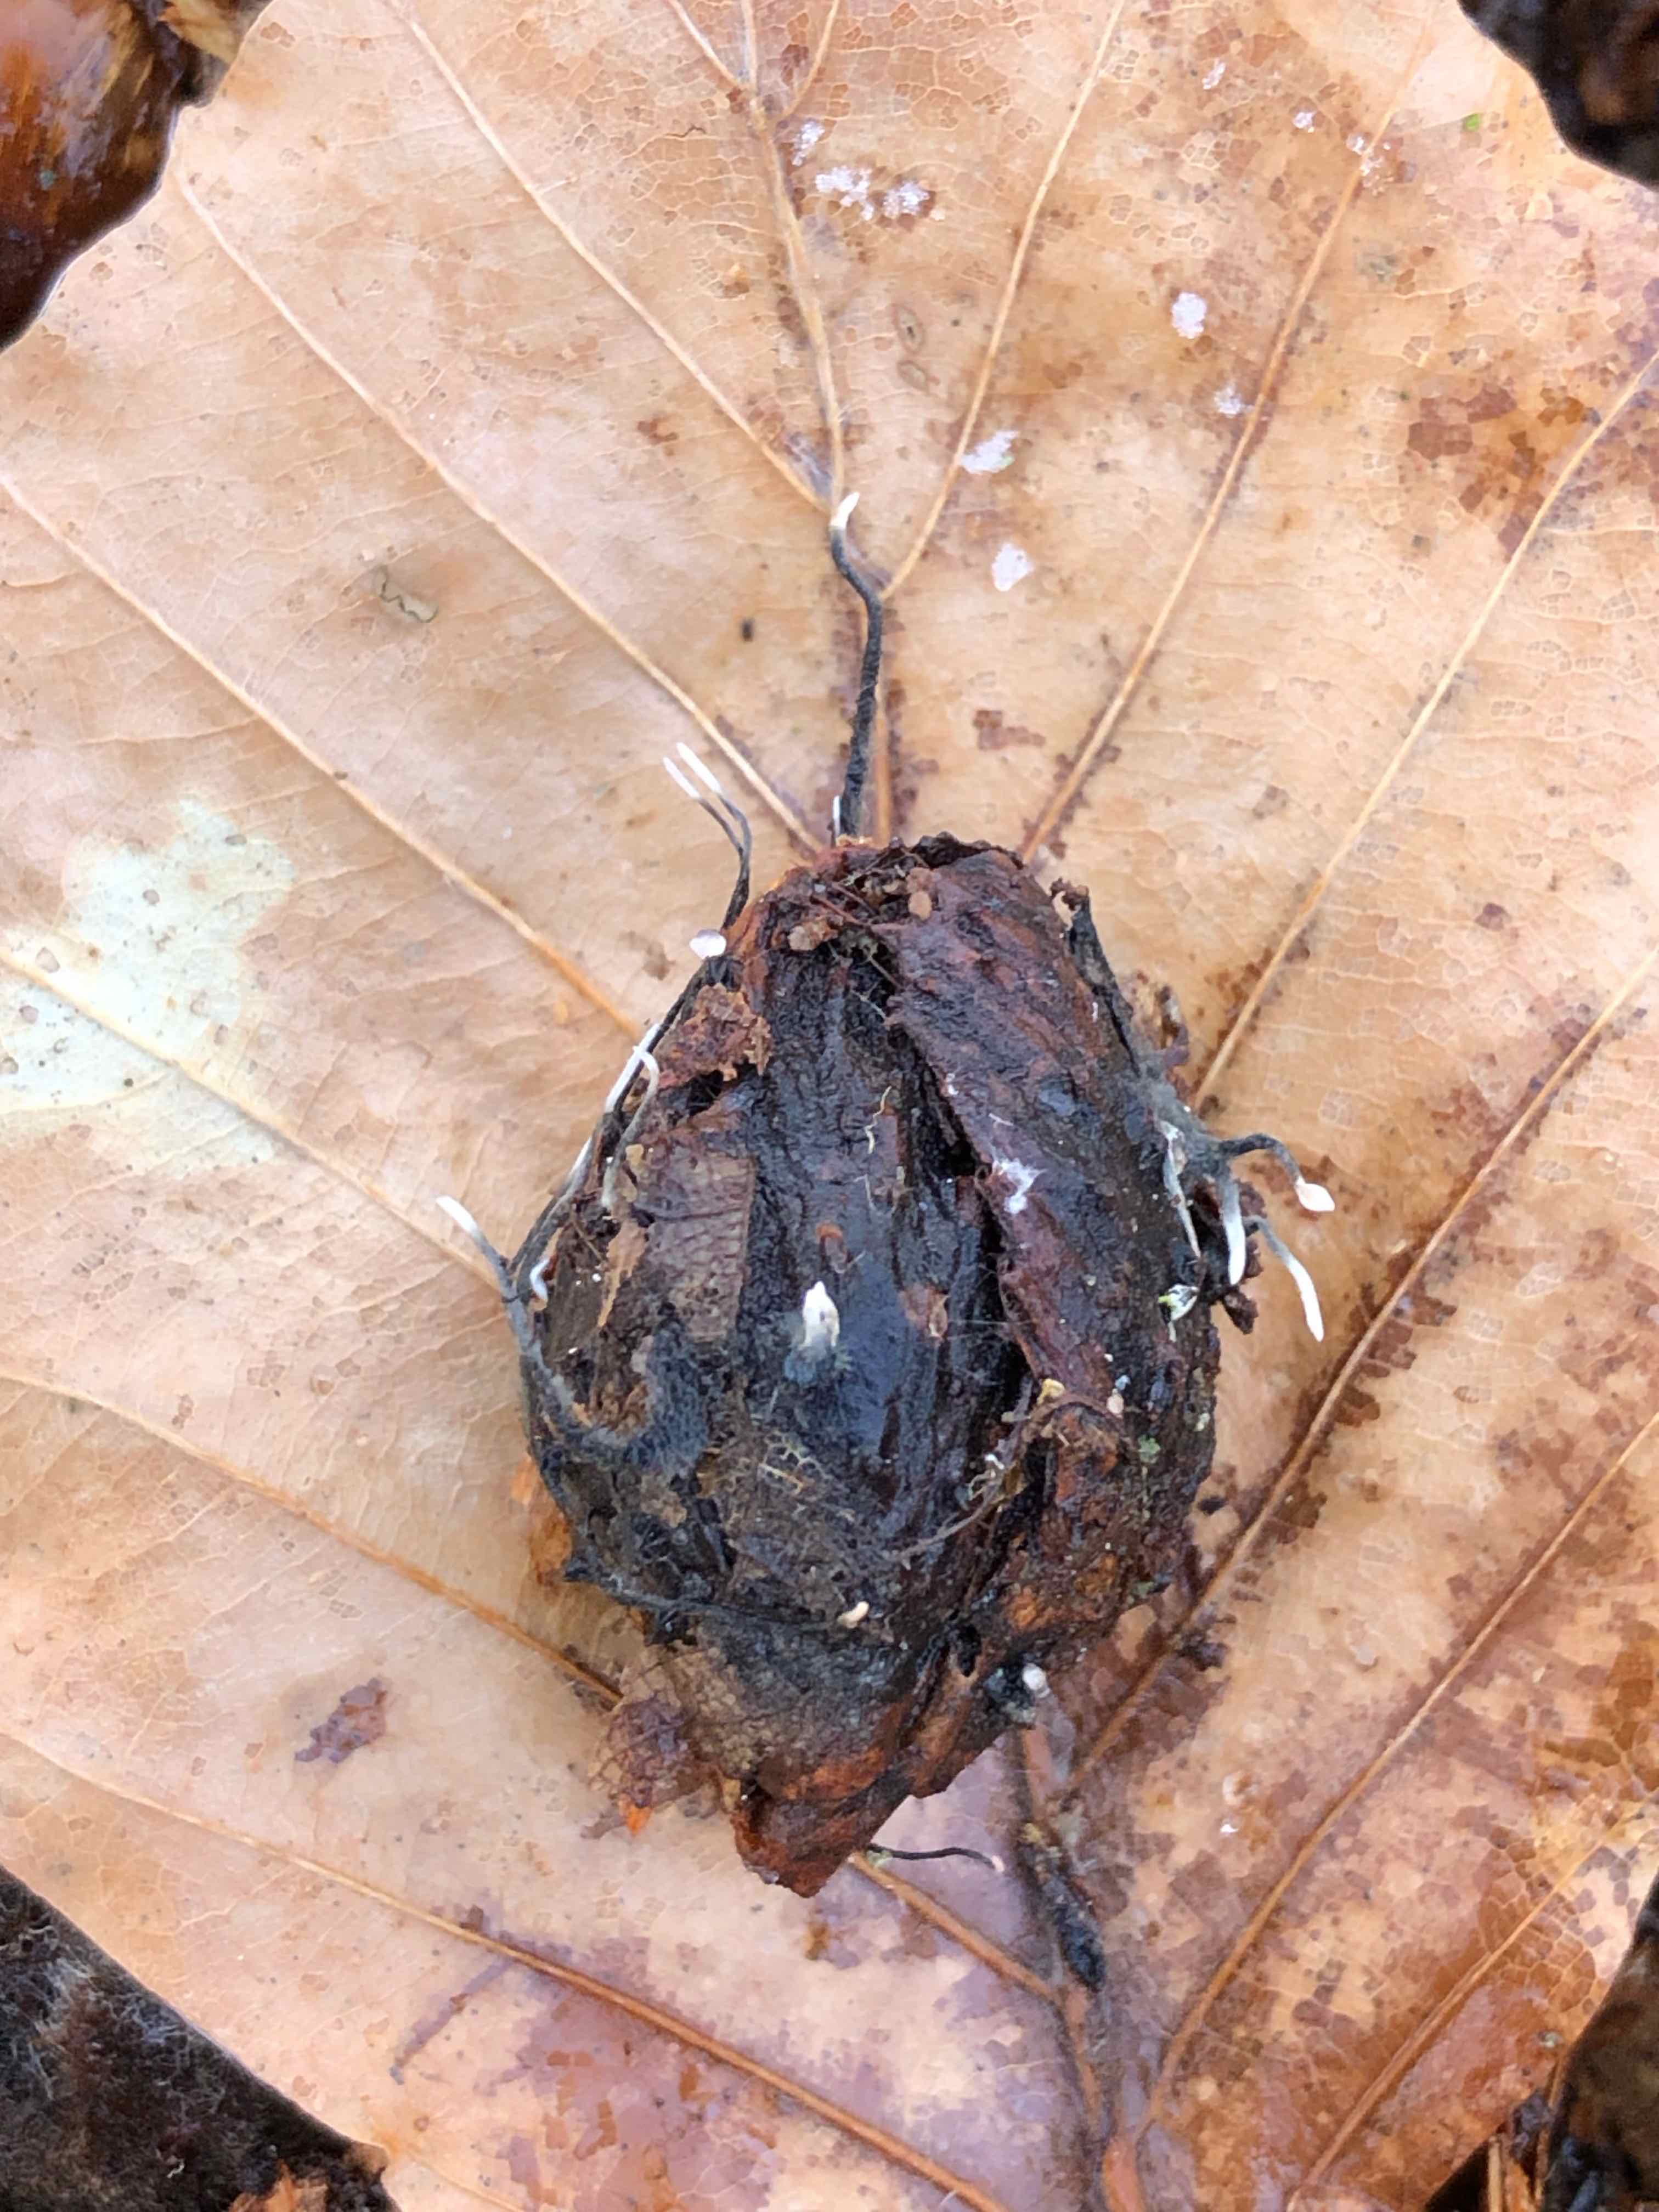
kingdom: Fungi
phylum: Ascomycota
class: Sordariomycetes
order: Xylariales
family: Xylariaceae
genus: Xylaria
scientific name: Xylaria carpophila
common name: bogskål-stødsvamp
